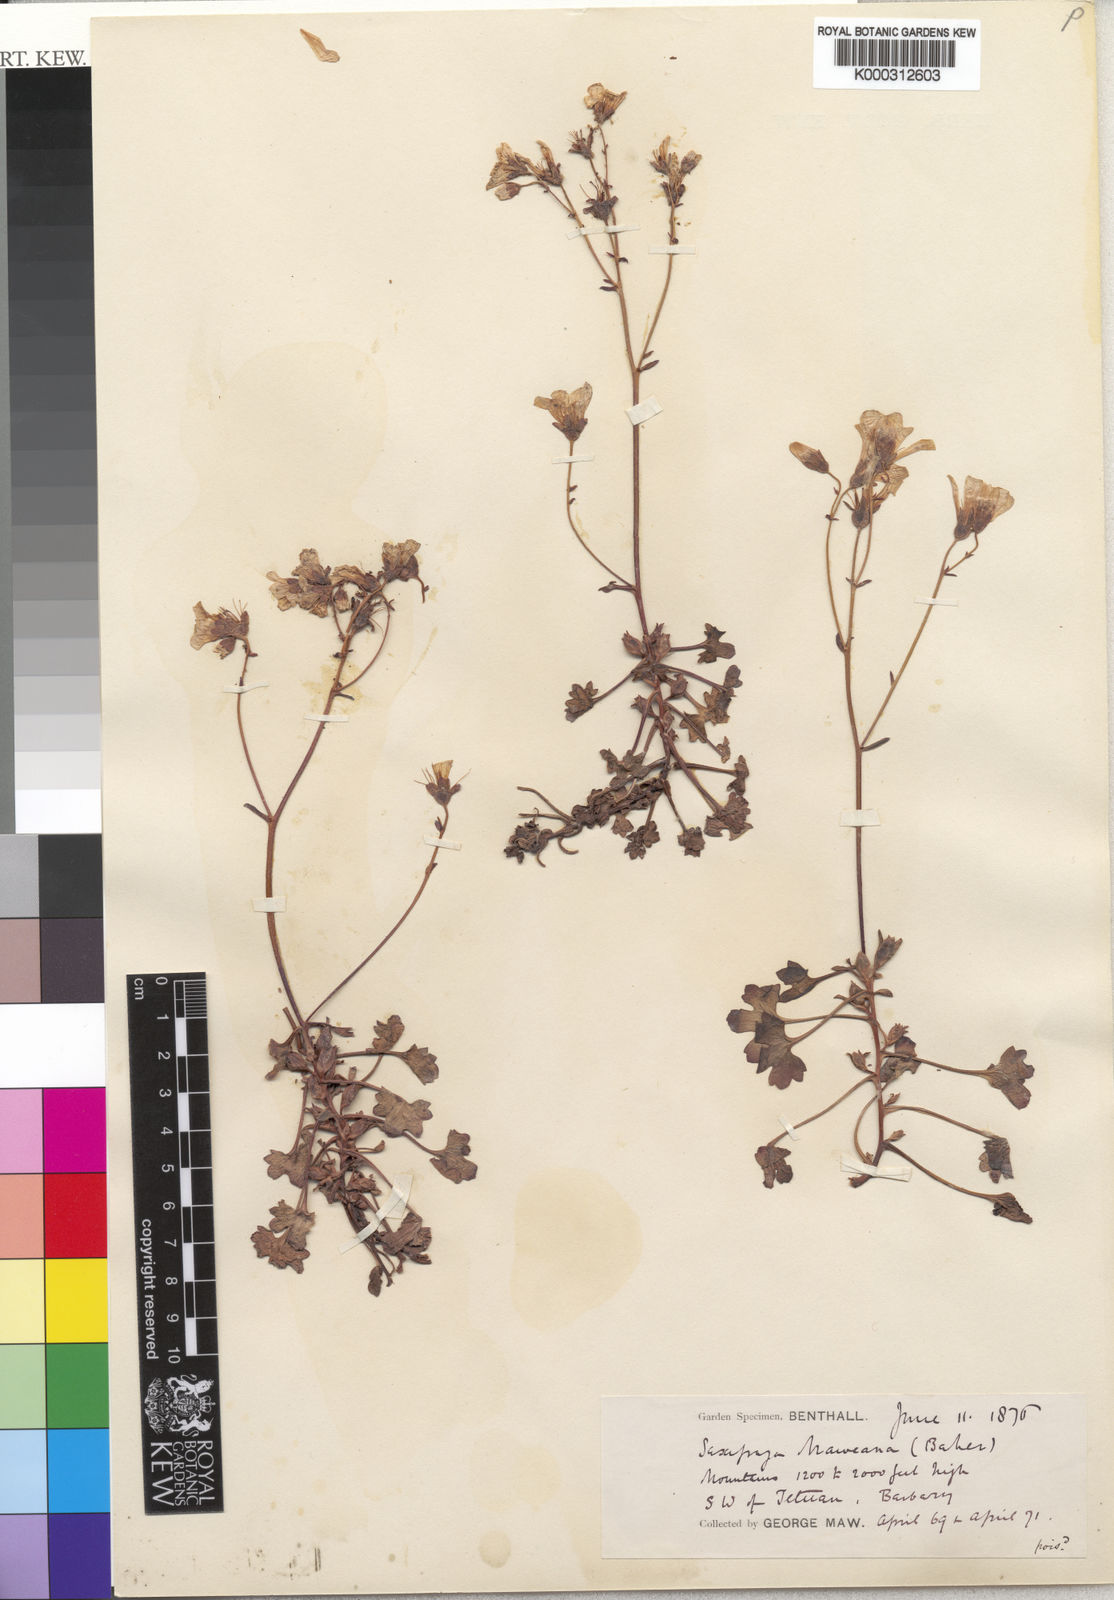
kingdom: Plantae
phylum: Tracheophyta
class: Magnoliopsida
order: Saxifragales
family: Saxifragaceae
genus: Saxifraga
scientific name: Saxifraga maweana
